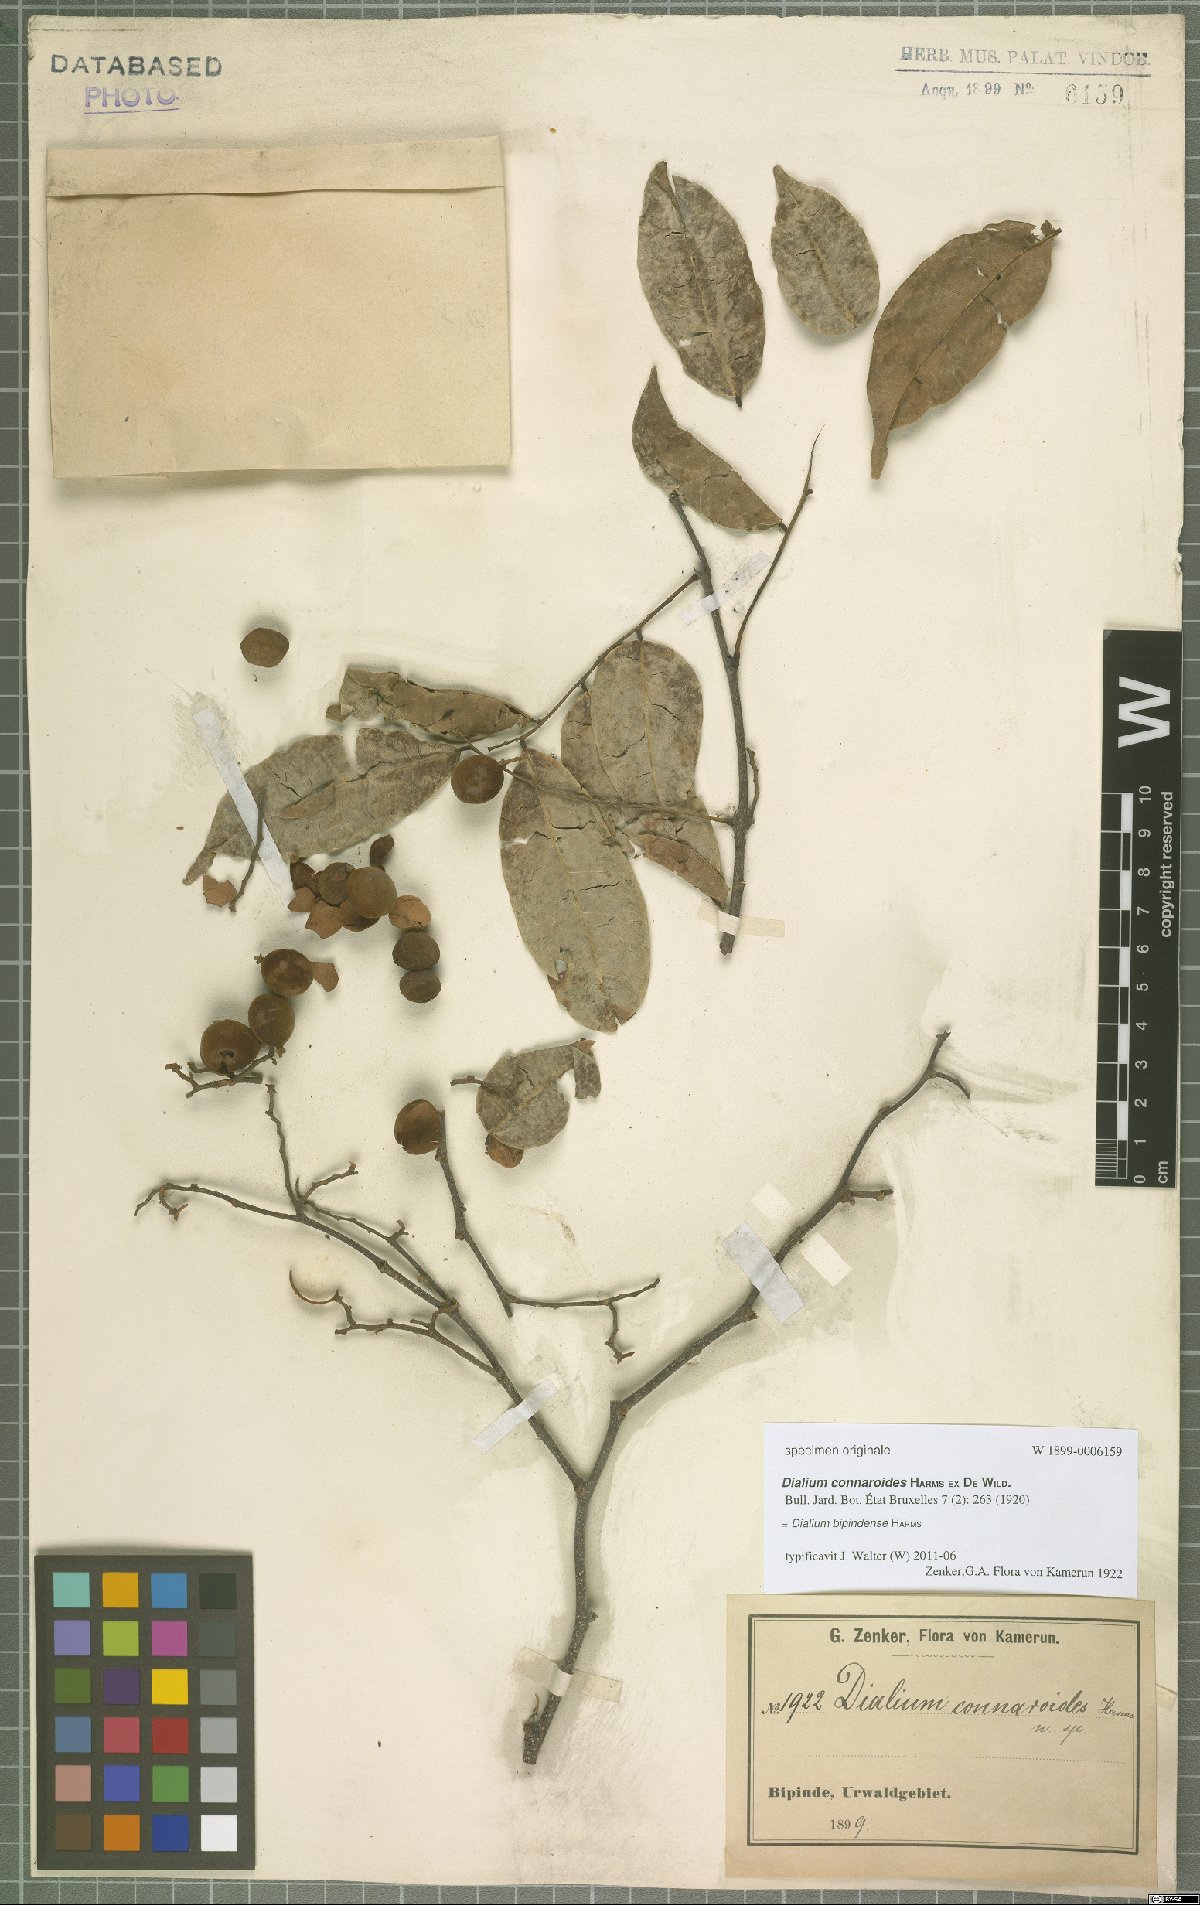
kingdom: Plantae
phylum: Tracheophyta
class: Magnoliopsida
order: Fabales
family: Fabaceae
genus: Dialium
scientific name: Dialium bipindense
